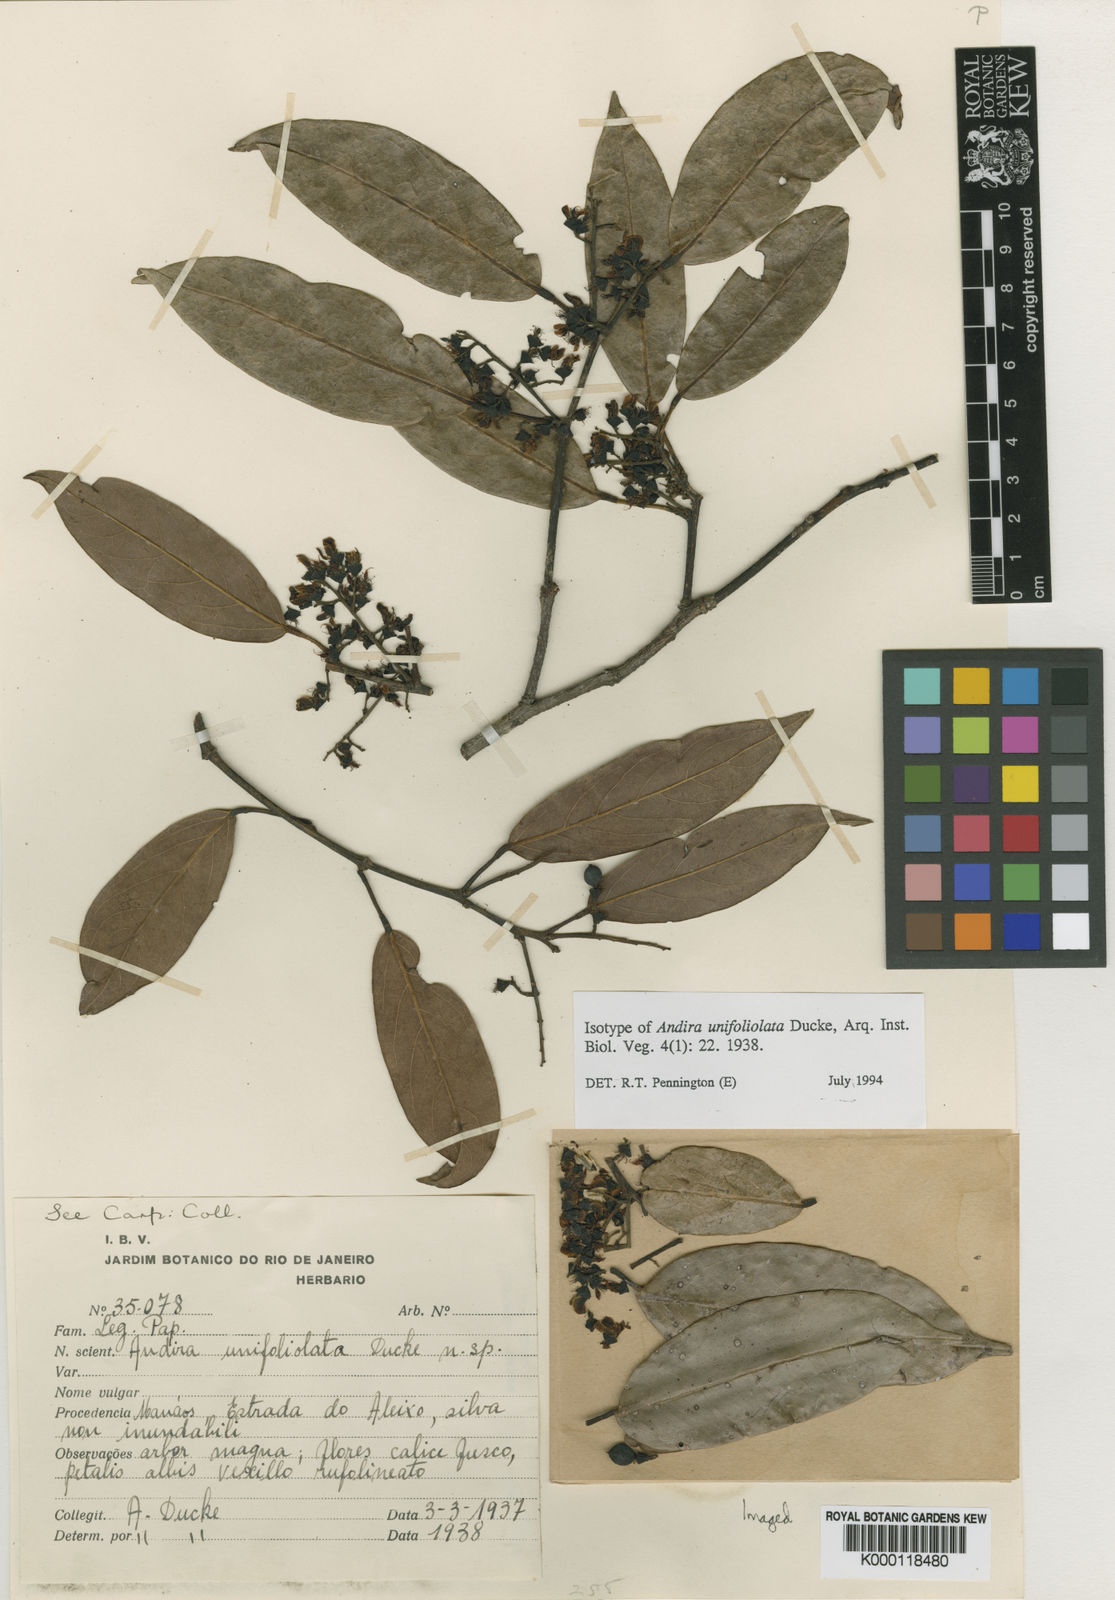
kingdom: Plantae
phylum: Tracheophyta
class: Magnoliopsida
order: Fabales
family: Fabaceae
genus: Andira
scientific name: Andira unifoliolata
